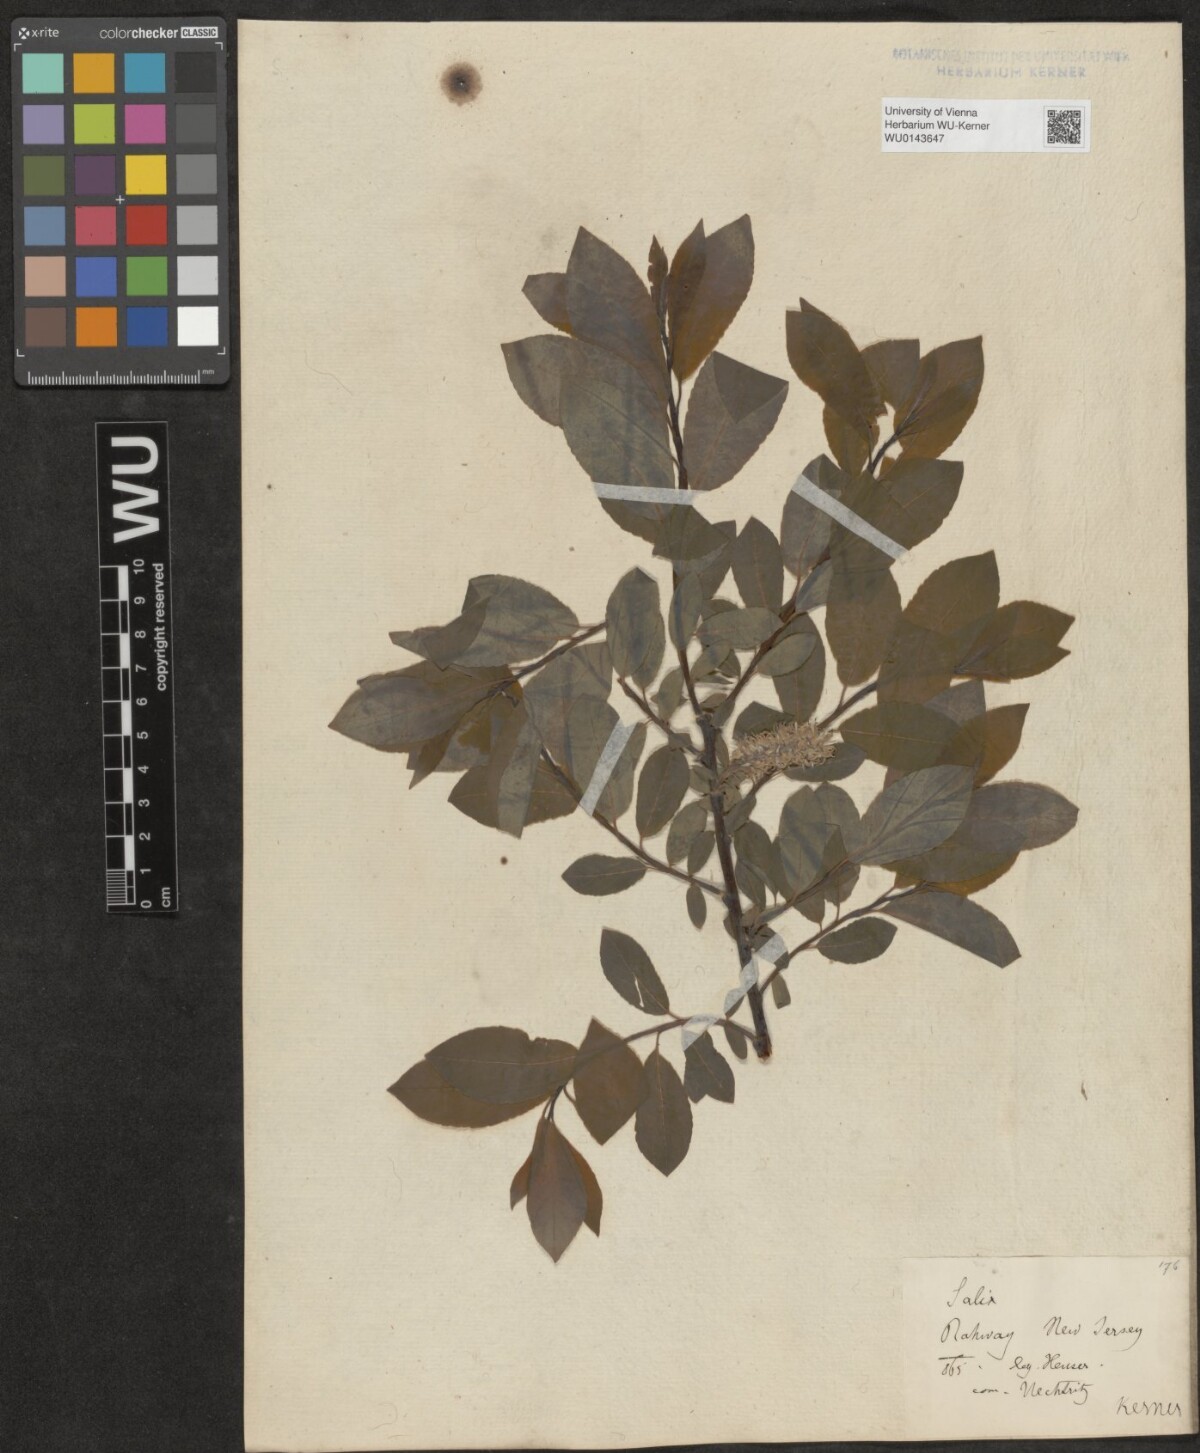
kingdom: Plantae
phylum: Tracheophyta
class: Magnoliopsida
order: Malpighiales
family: Salicaceae
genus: Salix
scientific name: Salix
